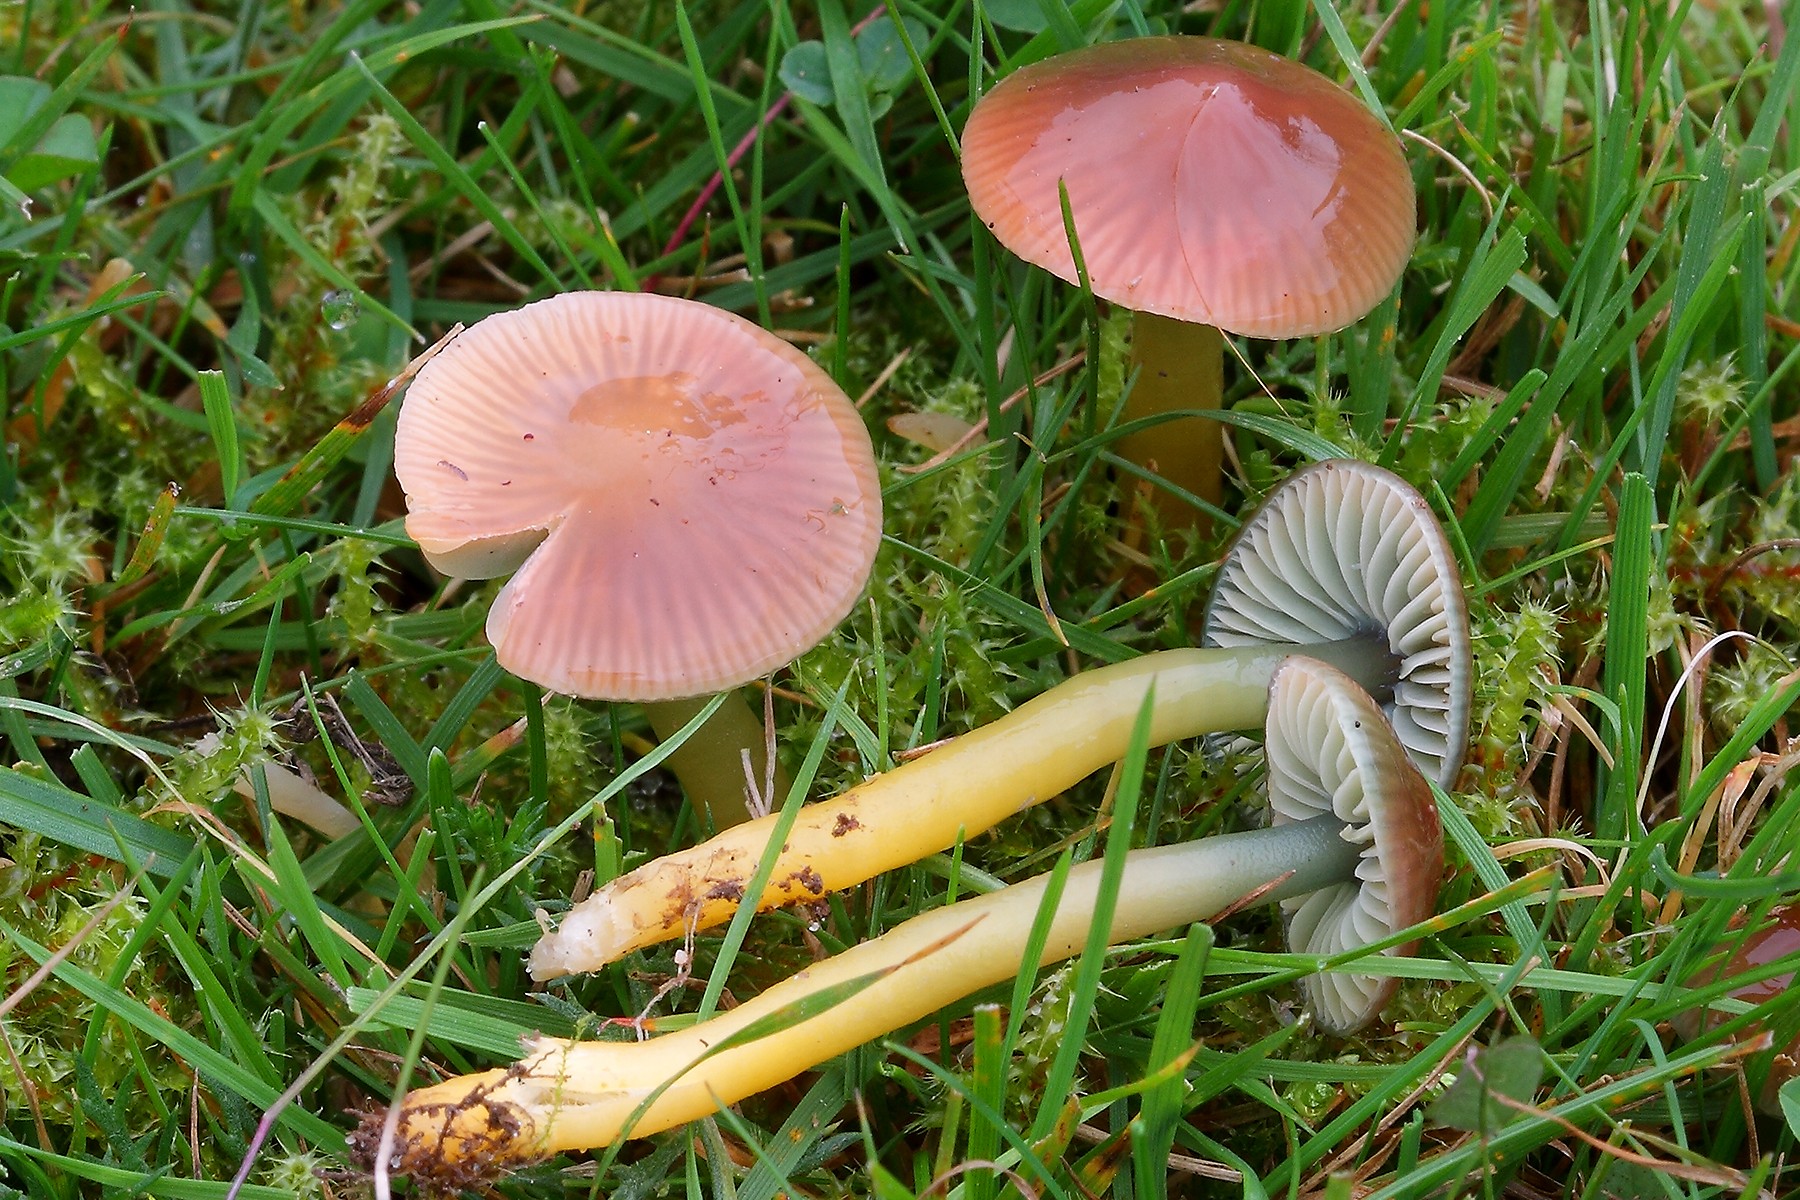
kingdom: Fungi
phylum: Basidiomycota
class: Agaricomycetes
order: Agaricales
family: Hygrophoraceae
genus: Gliophorus
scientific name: Gliophorus psittacinus
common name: papegøje-vokshat
